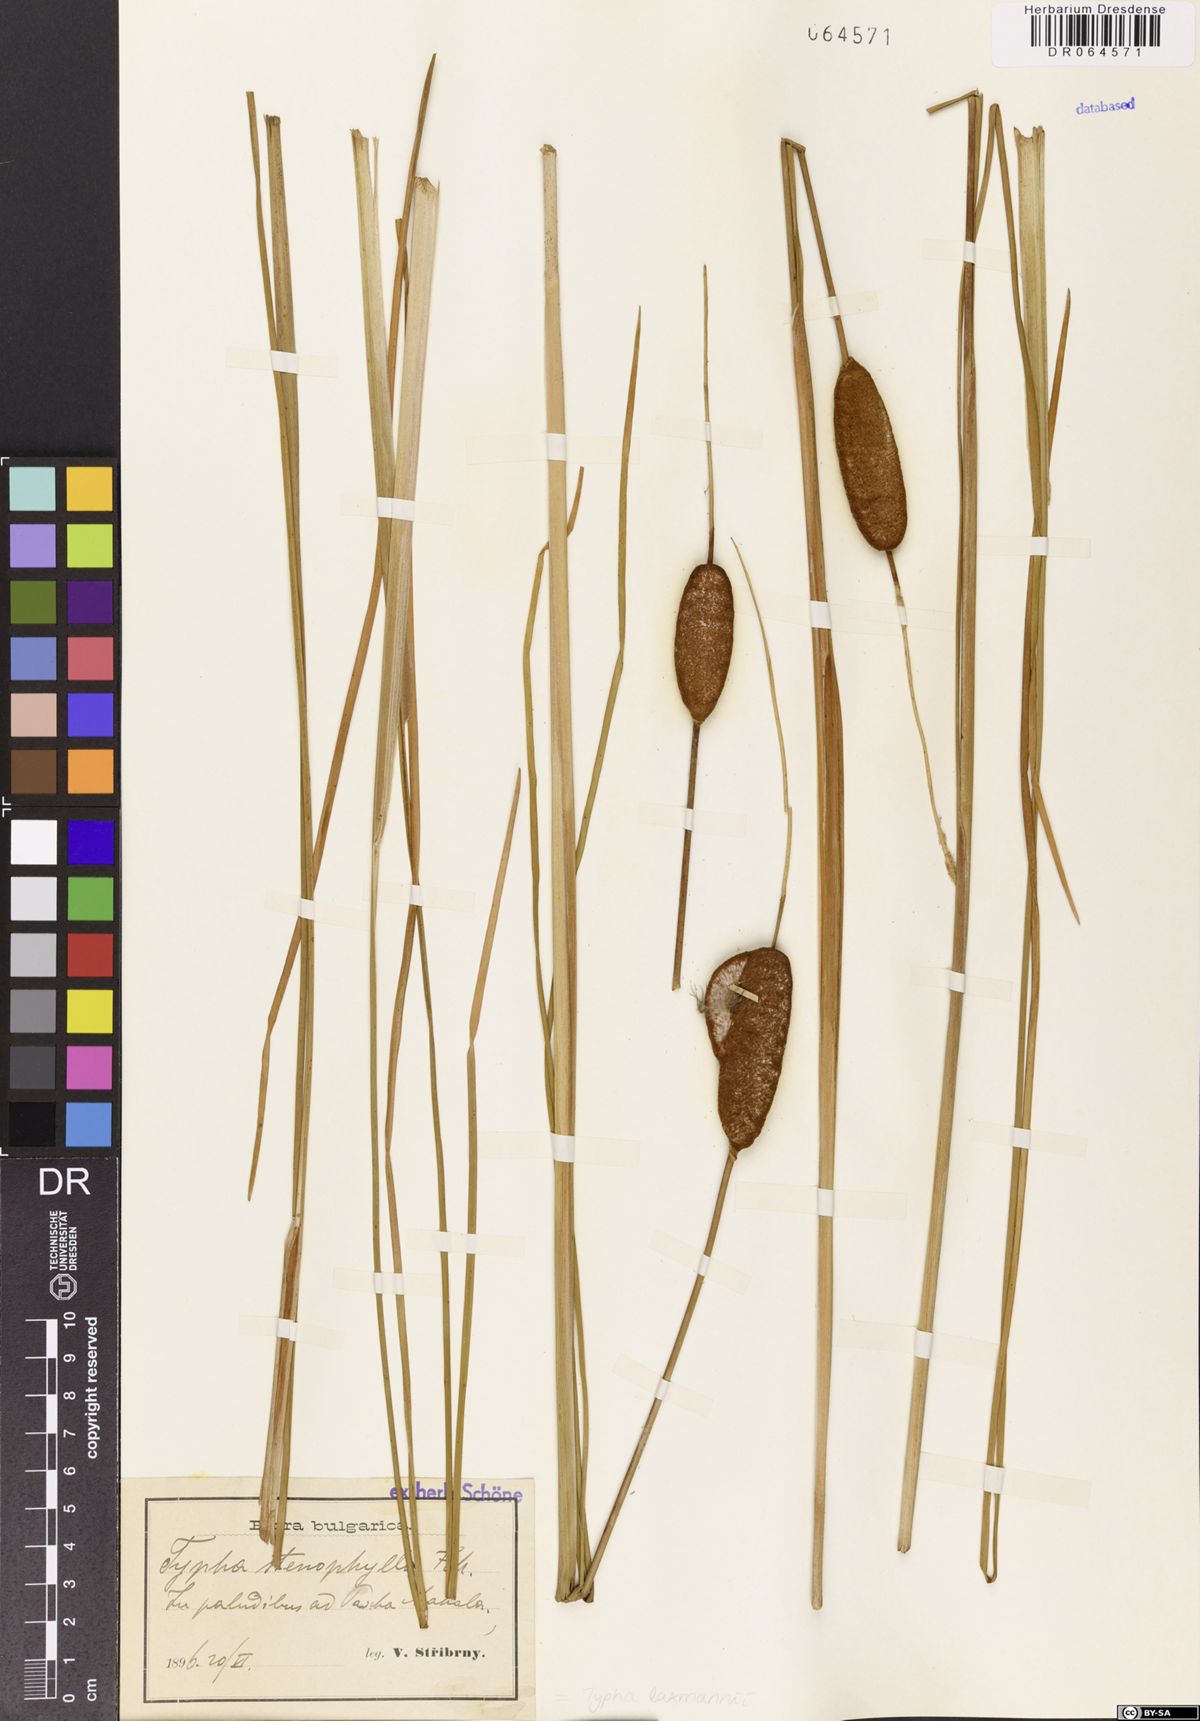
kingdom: Plantae
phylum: Tracheophyta
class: Liliopsida
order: Poales
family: Typhaceae
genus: Typha
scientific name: Typha laxmannii
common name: Laxman’s bulrush
